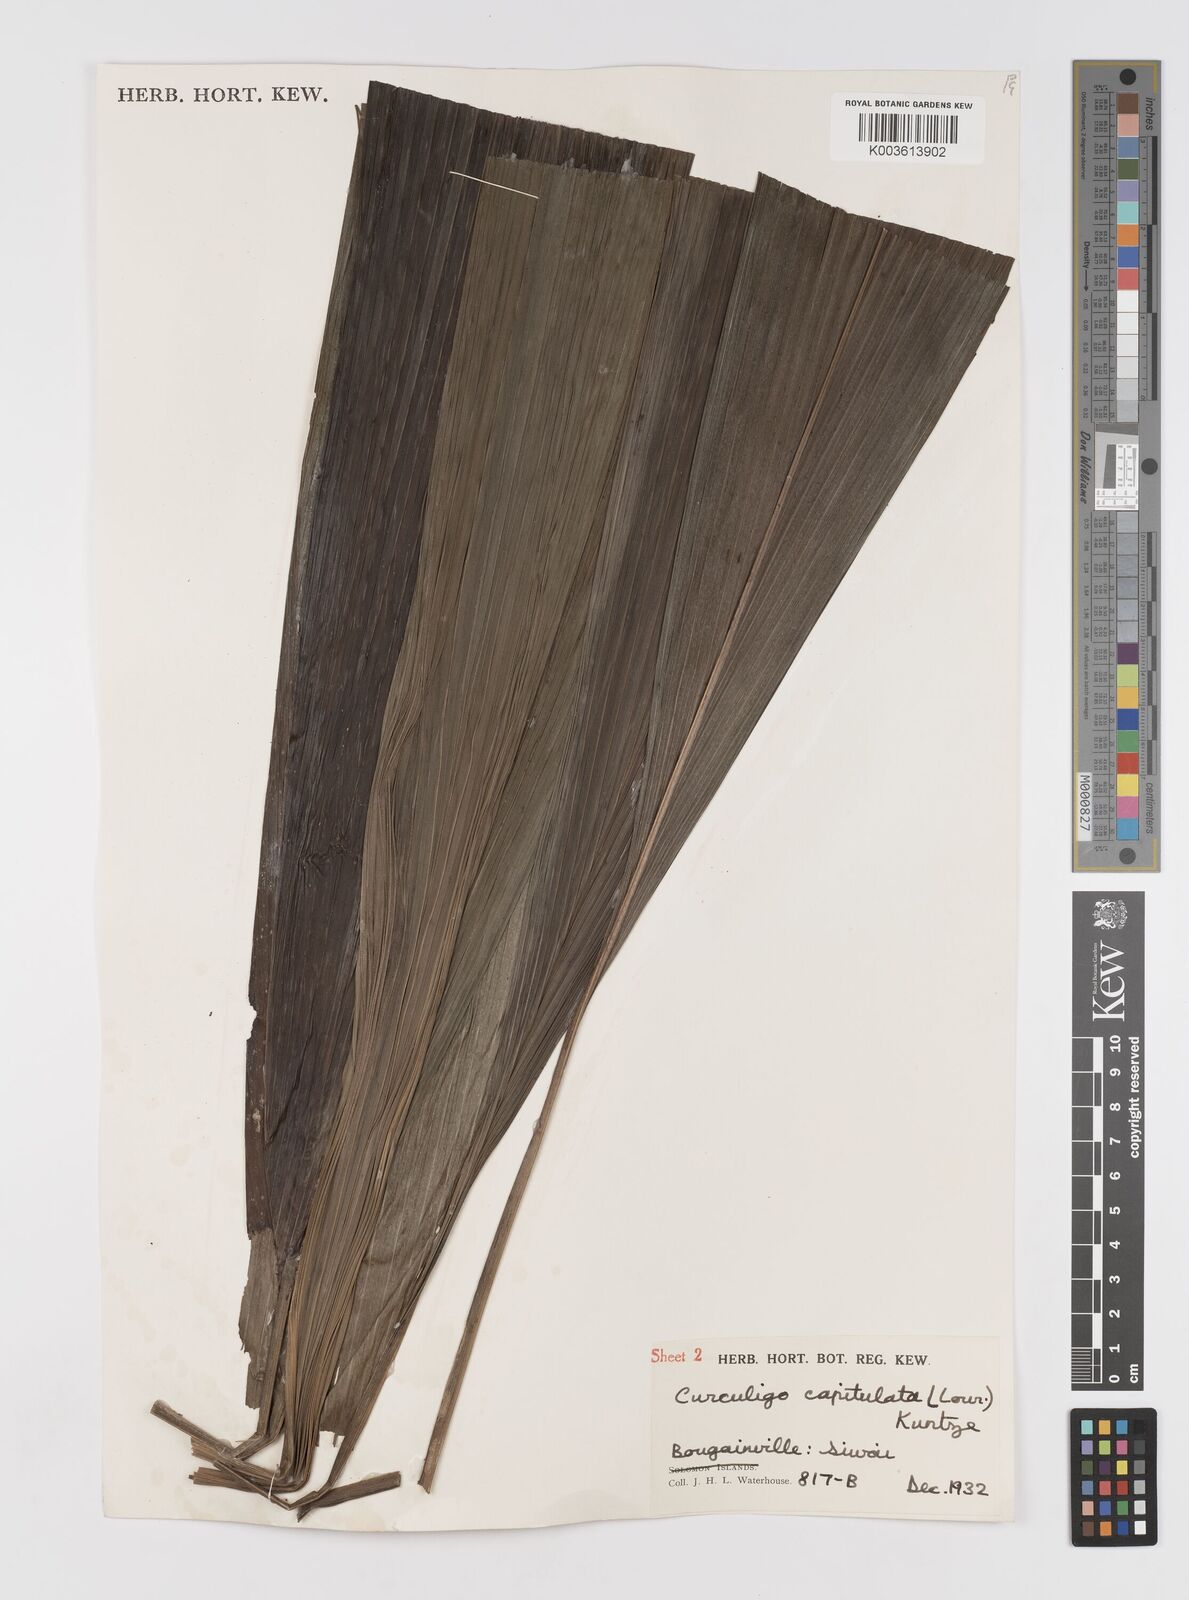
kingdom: Plantae
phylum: Tracheophyta
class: Liliopsida
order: Asparagales
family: Hypoxidaceae
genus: Curculigo
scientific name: Curculigo capitulata
